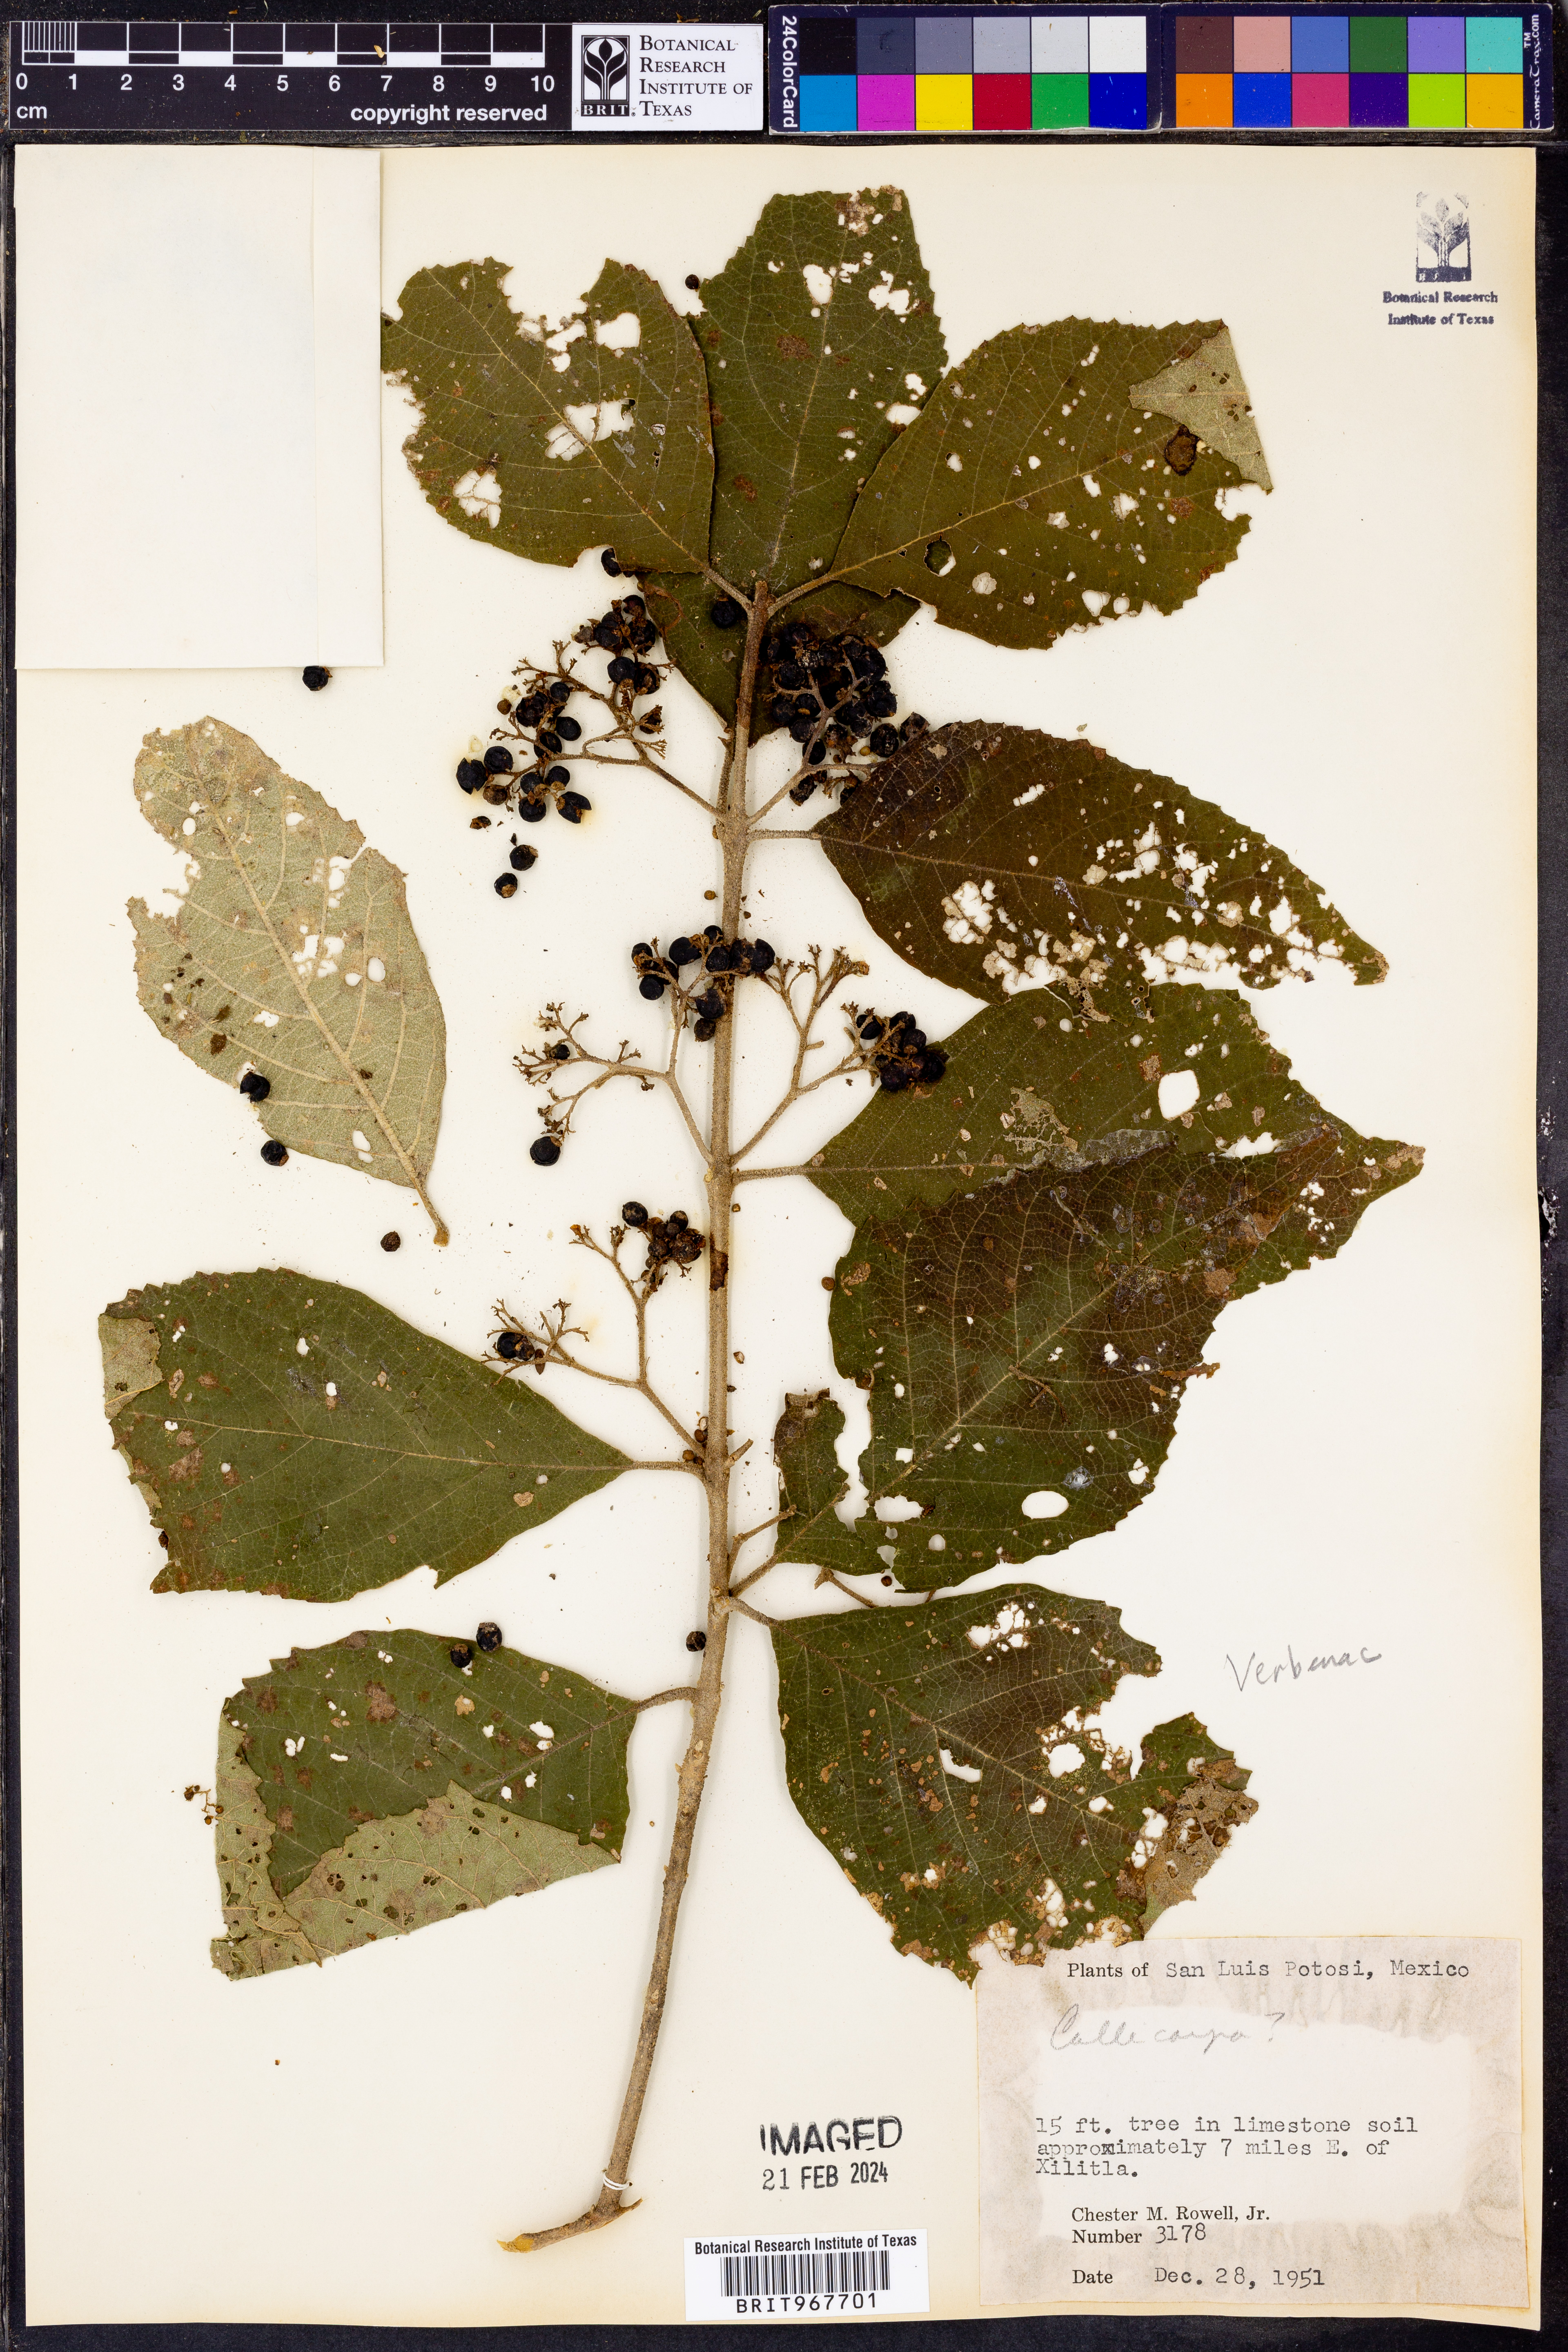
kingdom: Plantae
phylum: Tracheophyta
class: Magnoliopsida
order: Lamiales
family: Lamiaceae
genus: Callicarpa
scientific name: Callicarpa
